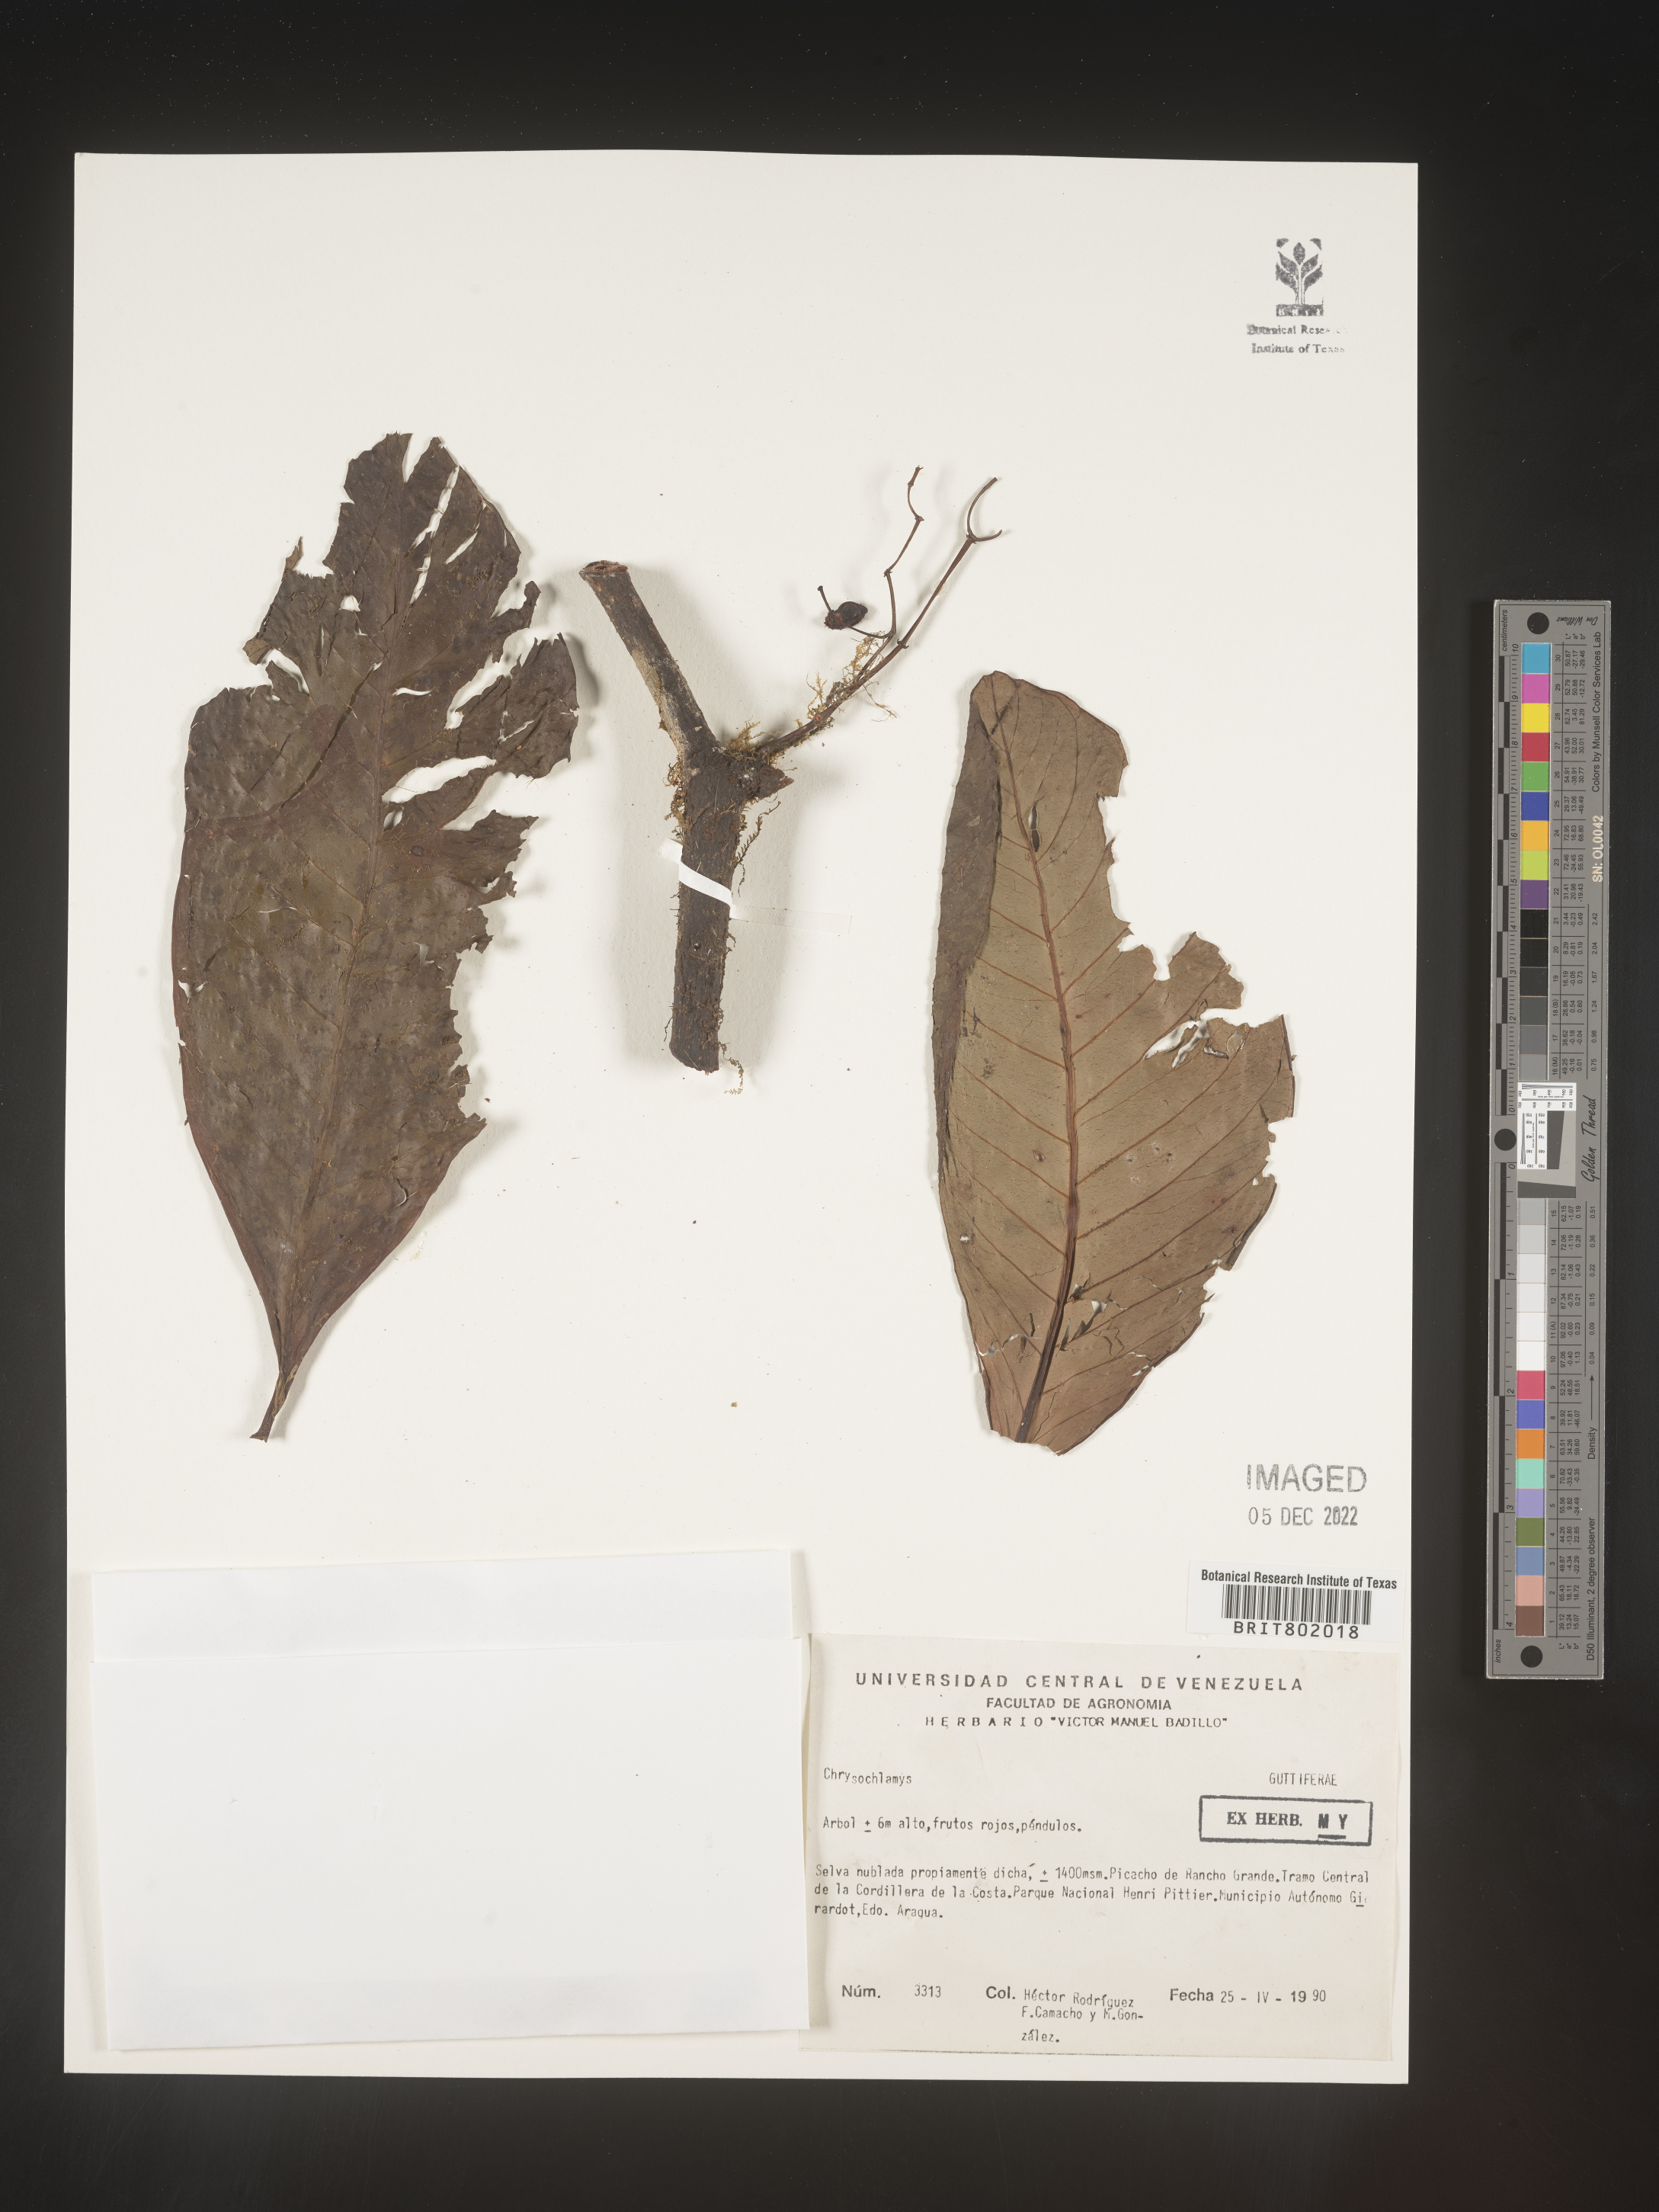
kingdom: Plantae
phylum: Tracheophyta
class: Magnoliopsida
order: Malpighiales
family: Clusiaceae
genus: Chrysochlamys
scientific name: Chrysochlamys
